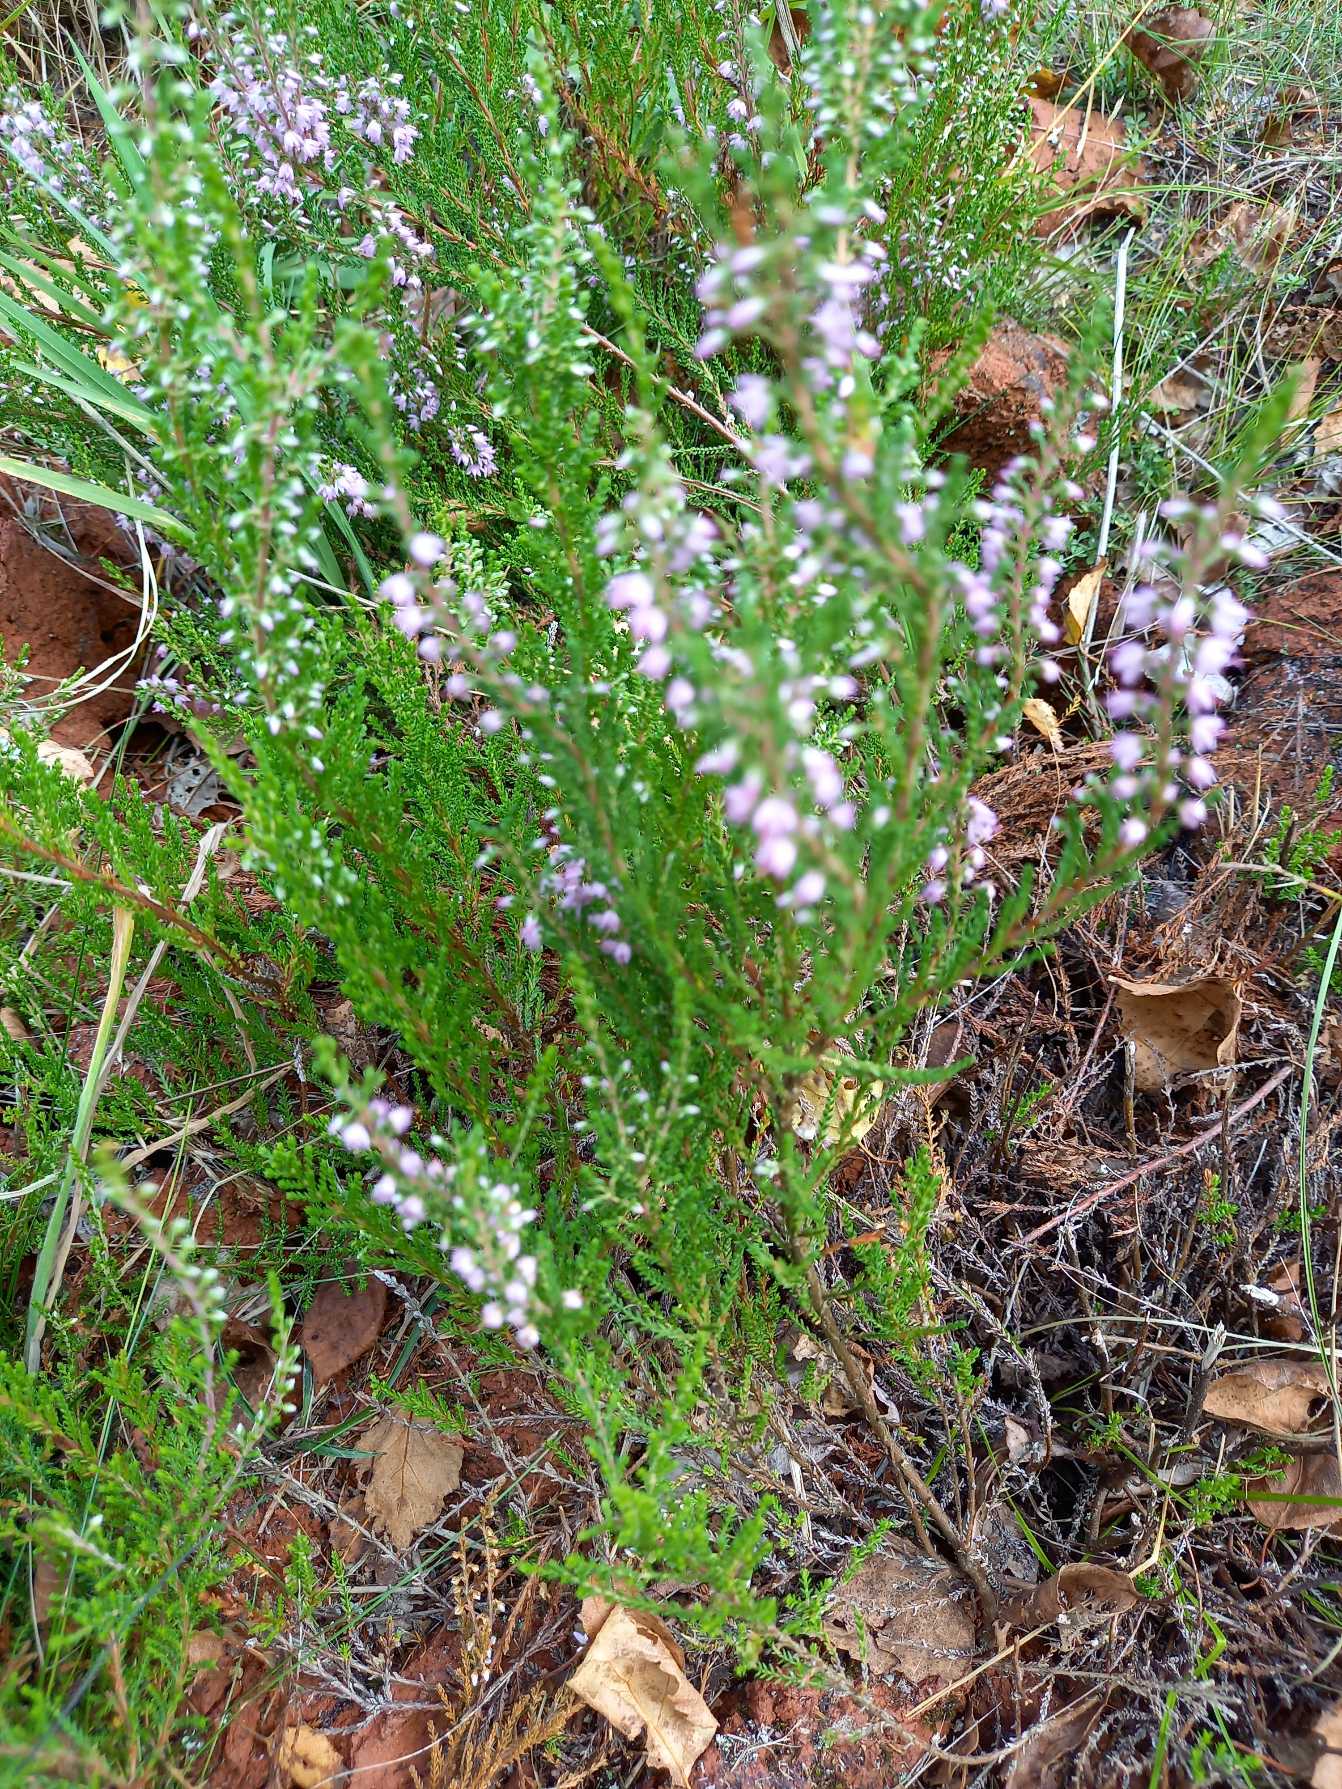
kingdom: Plantae
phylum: Tracheophyta
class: Magnoliopsida
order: Ericales
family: Ericaceae
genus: Calluna
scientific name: Calluna vulgaris
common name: Hedelyng
